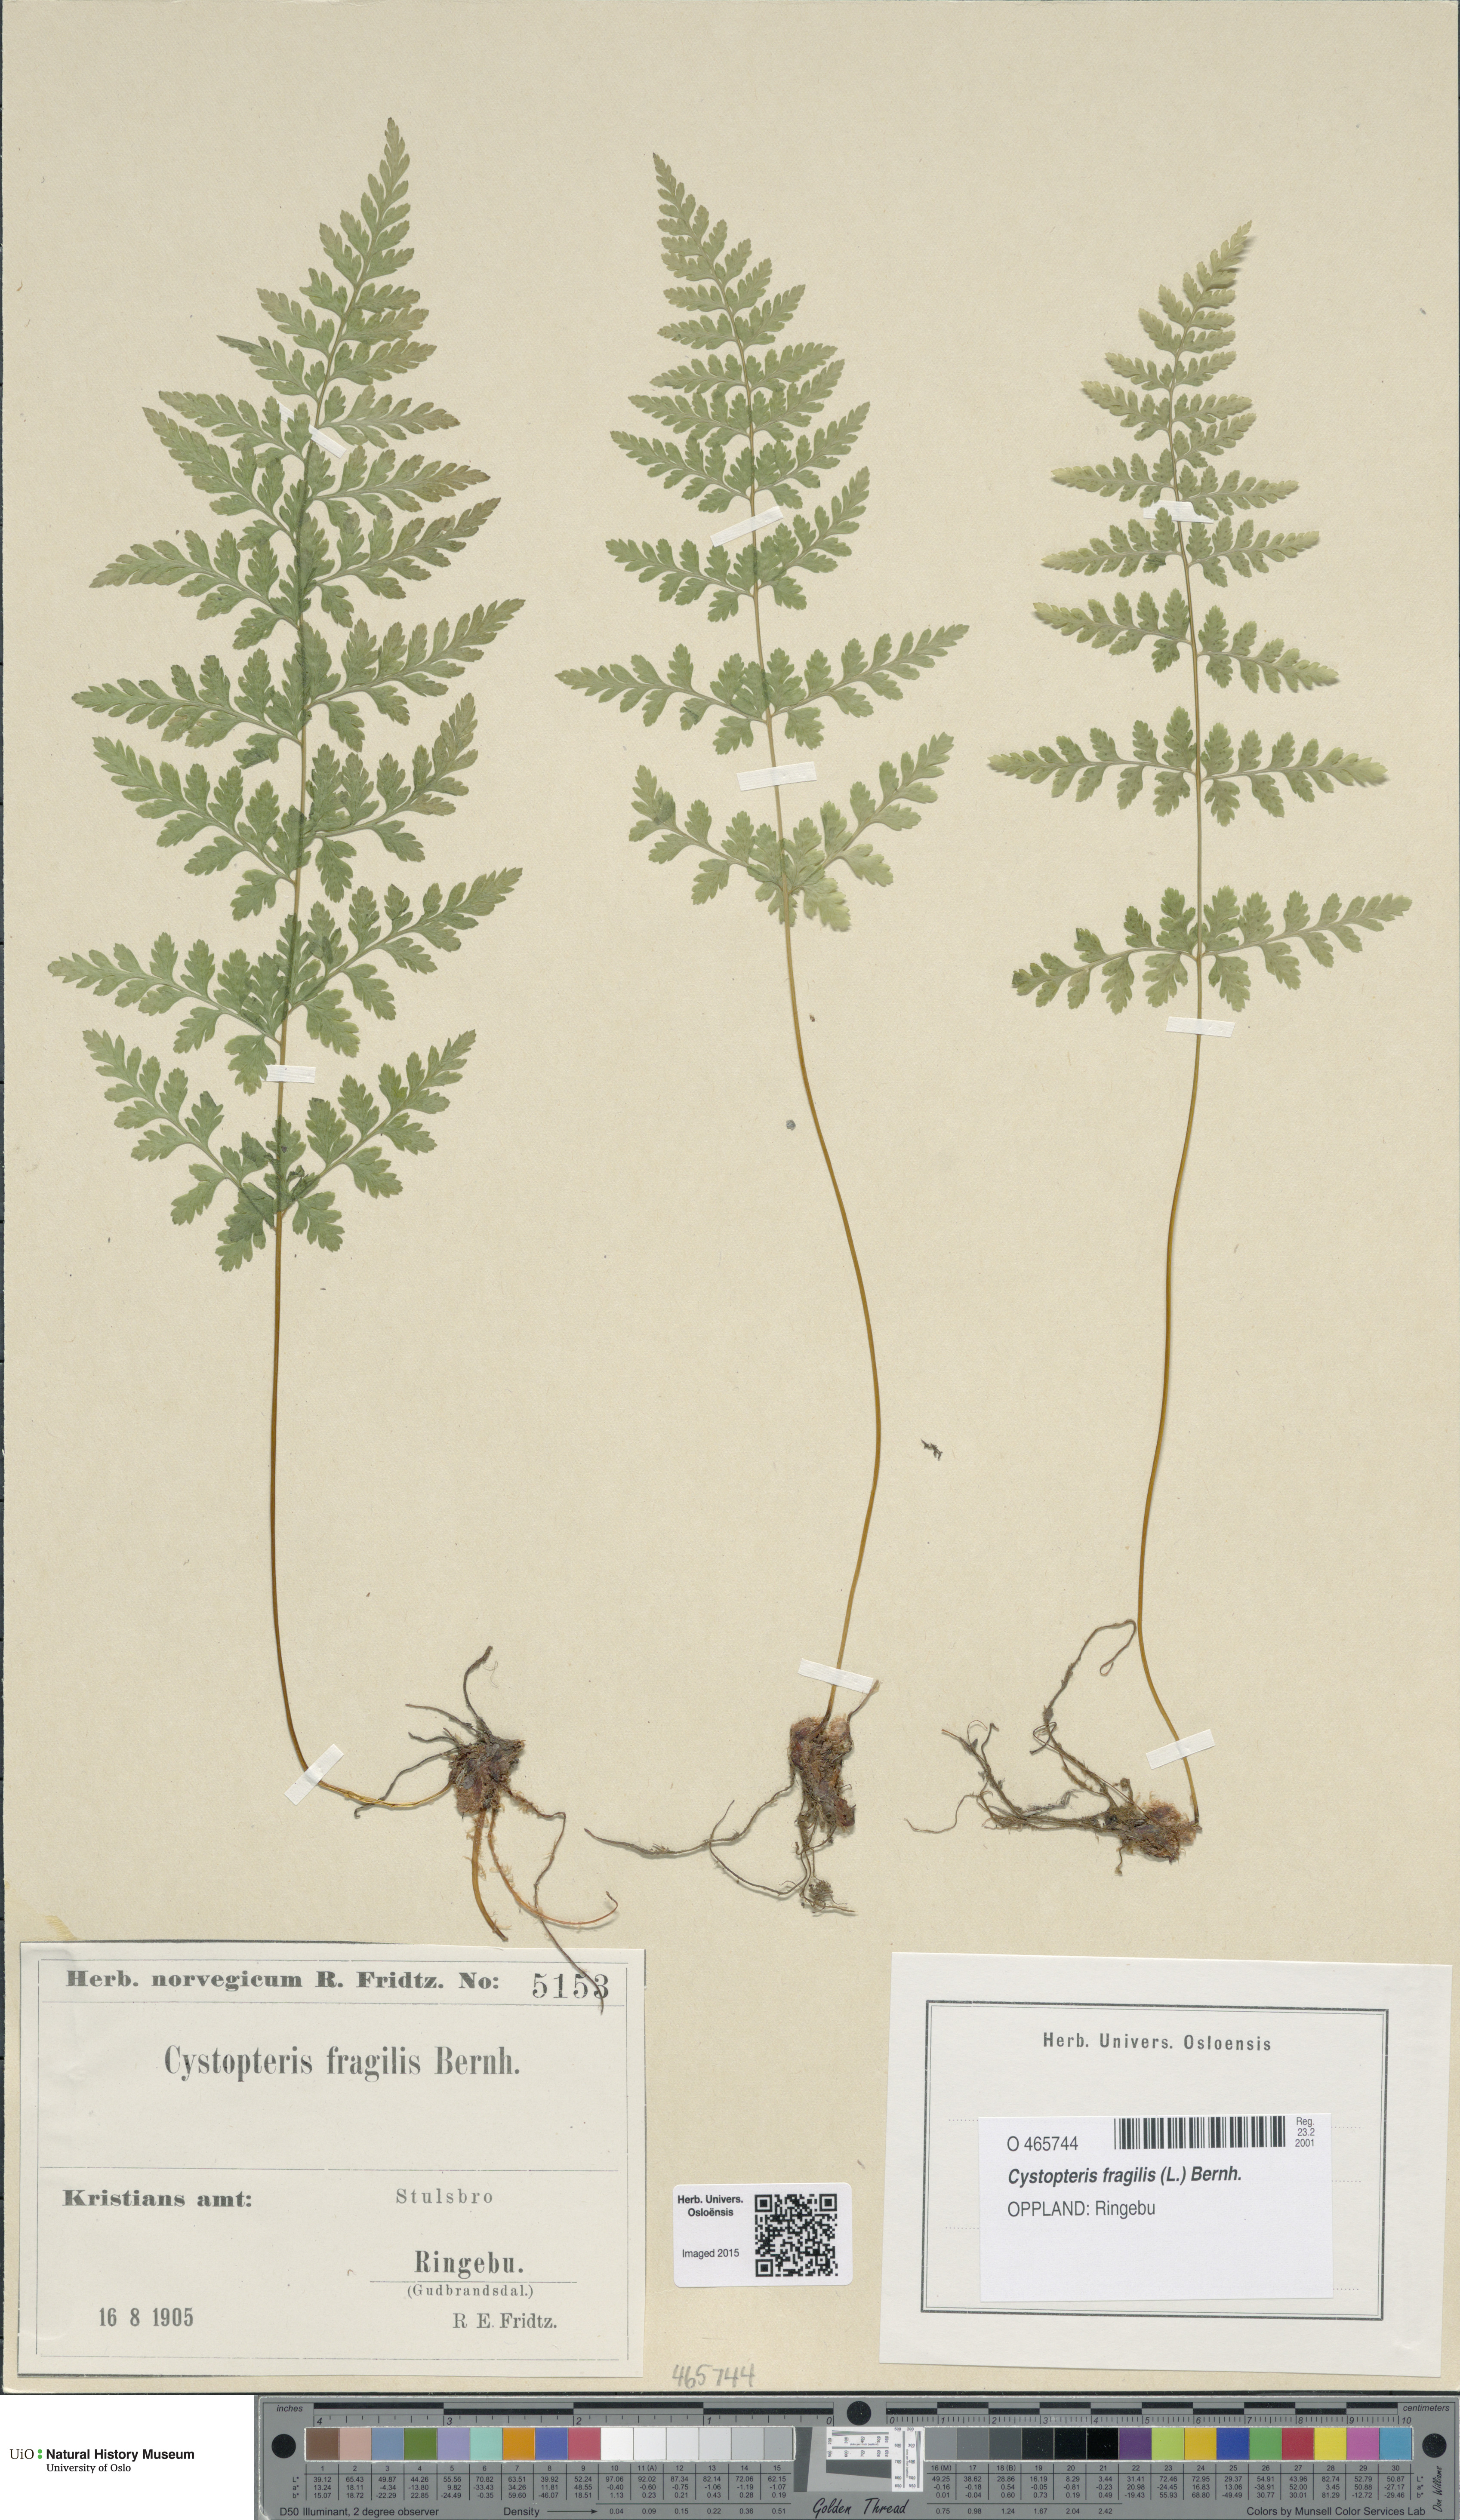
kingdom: Plantae
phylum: Tracheophyta
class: Polypodiopsida
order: Polypodiales
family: Cystopteridaceae
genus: Cystopteris
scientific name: Cystopteris fragilis
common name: Brittle bladder fern
